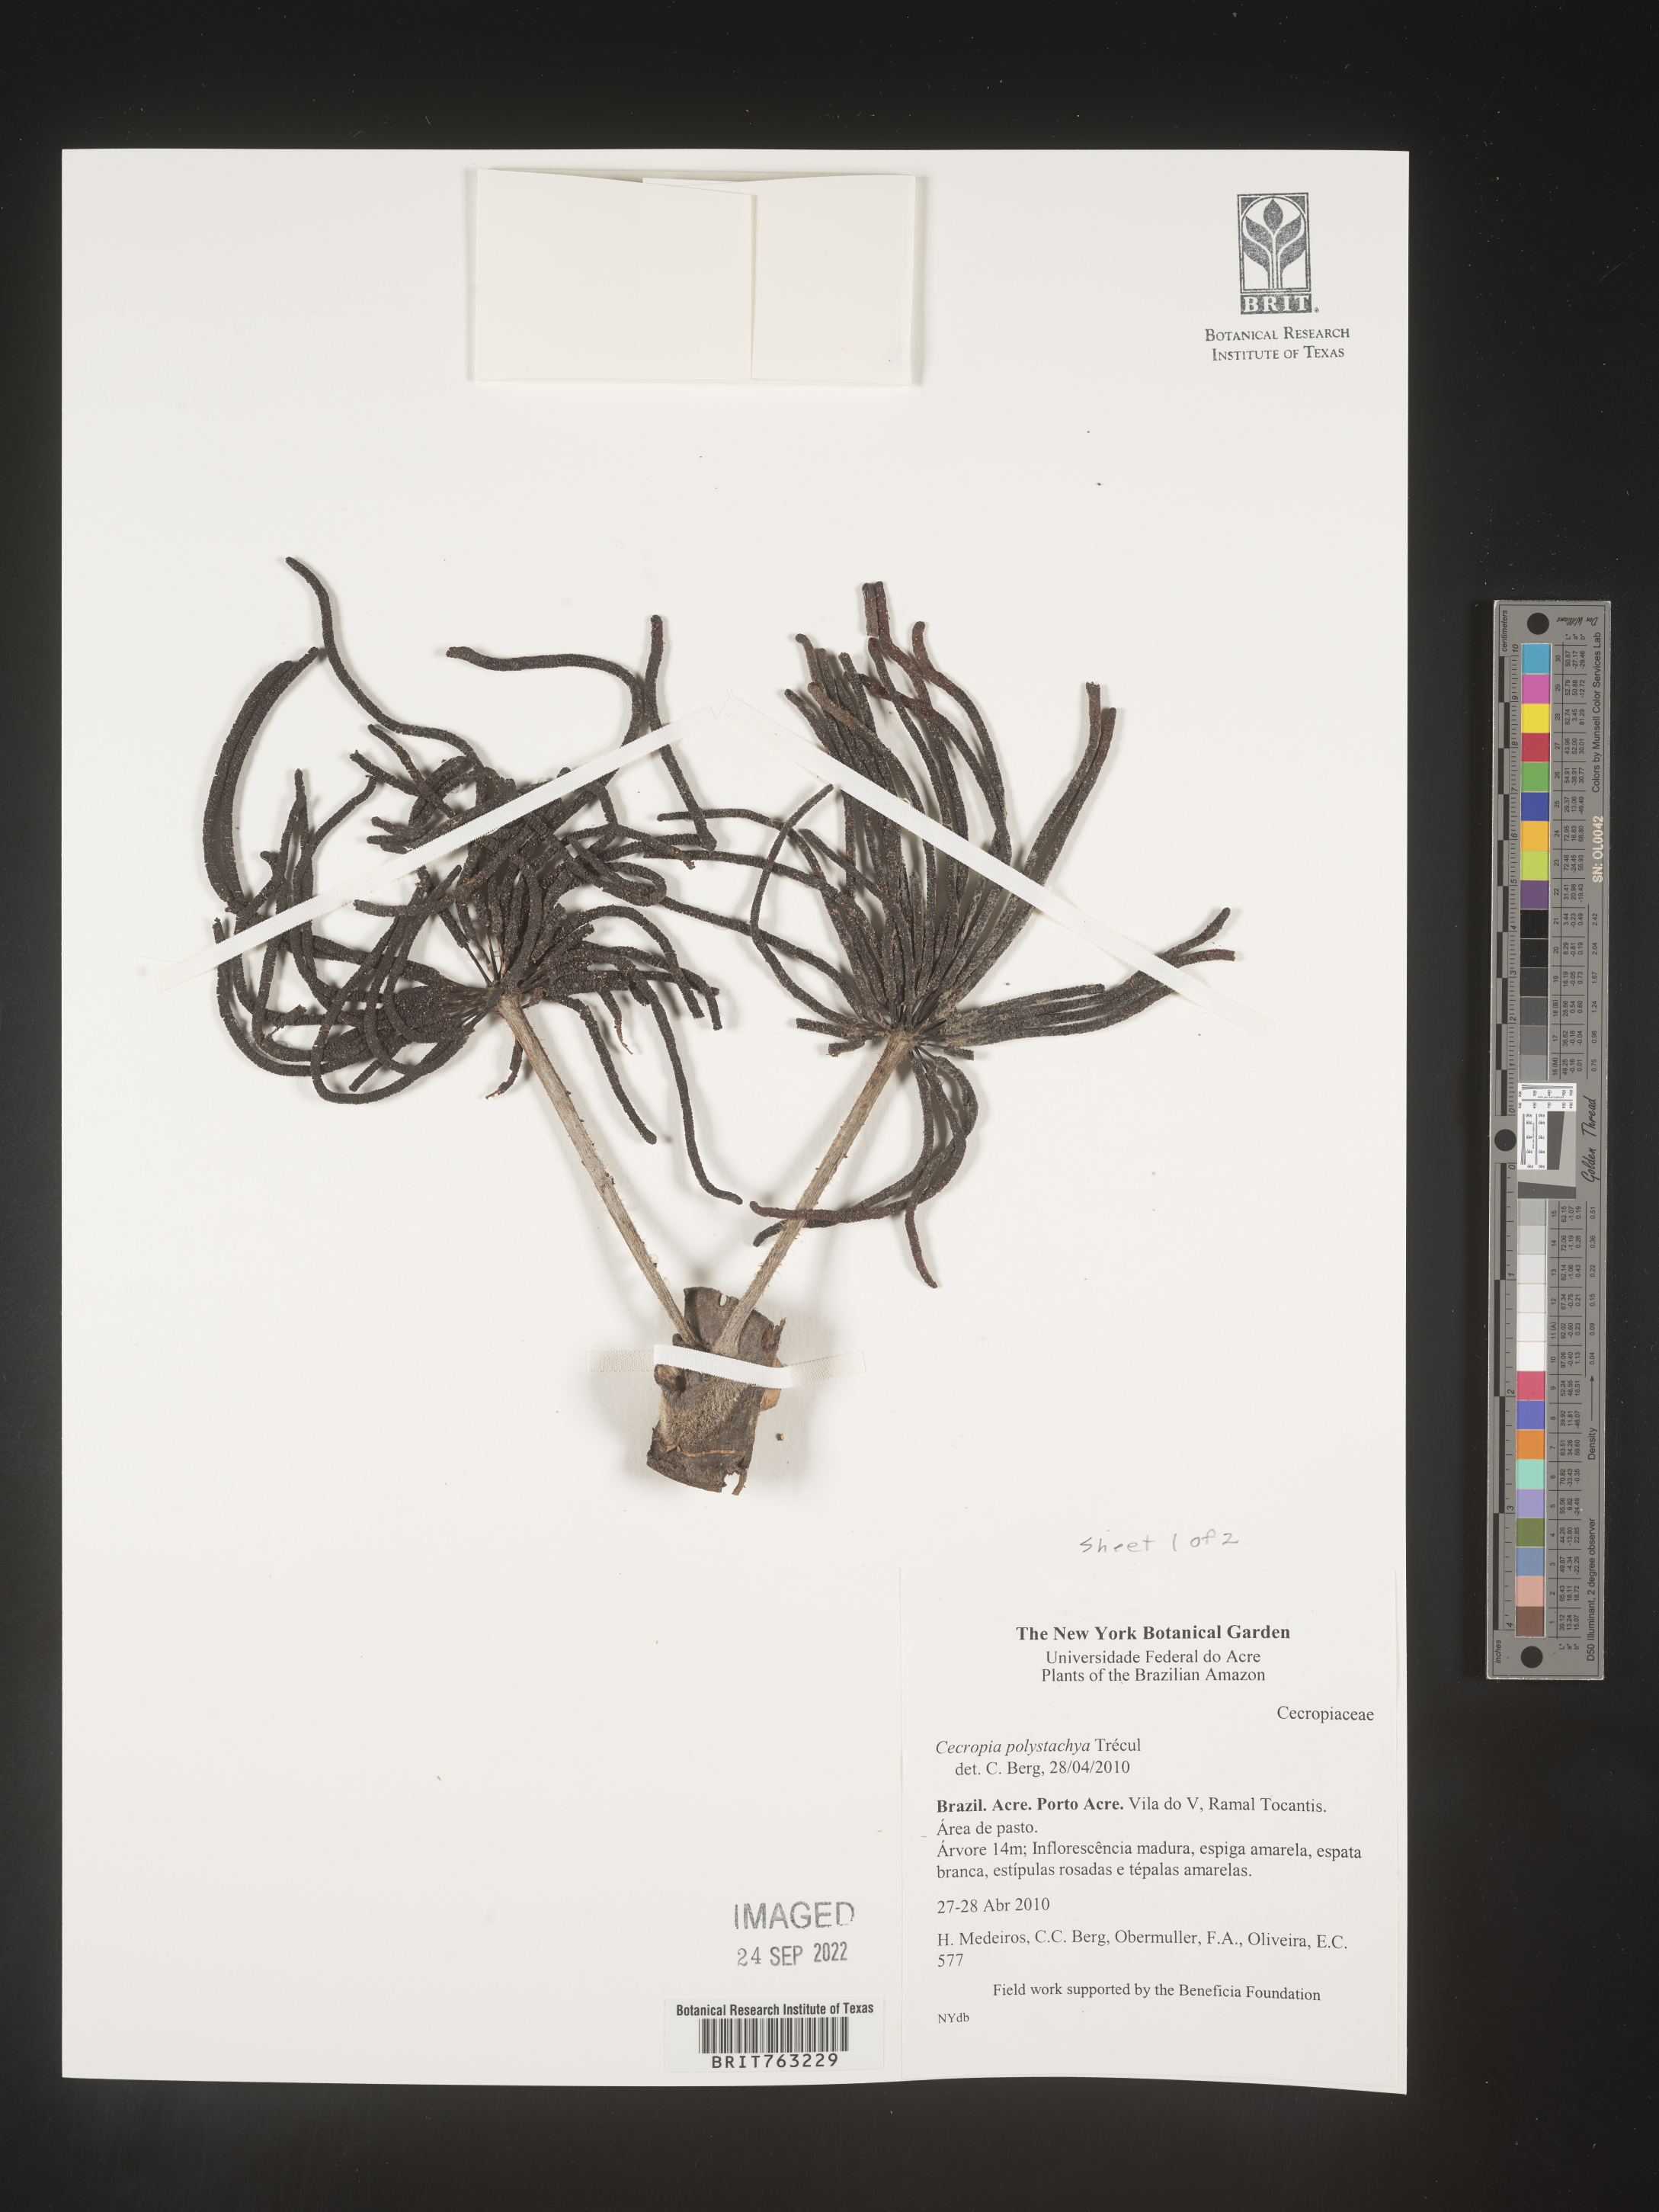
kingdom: Plantae
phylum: Tracheophyta
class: Magnoliopsida
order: Rosales
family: Urticaceae
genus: Cecropia
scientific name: Cecropia polystachya
